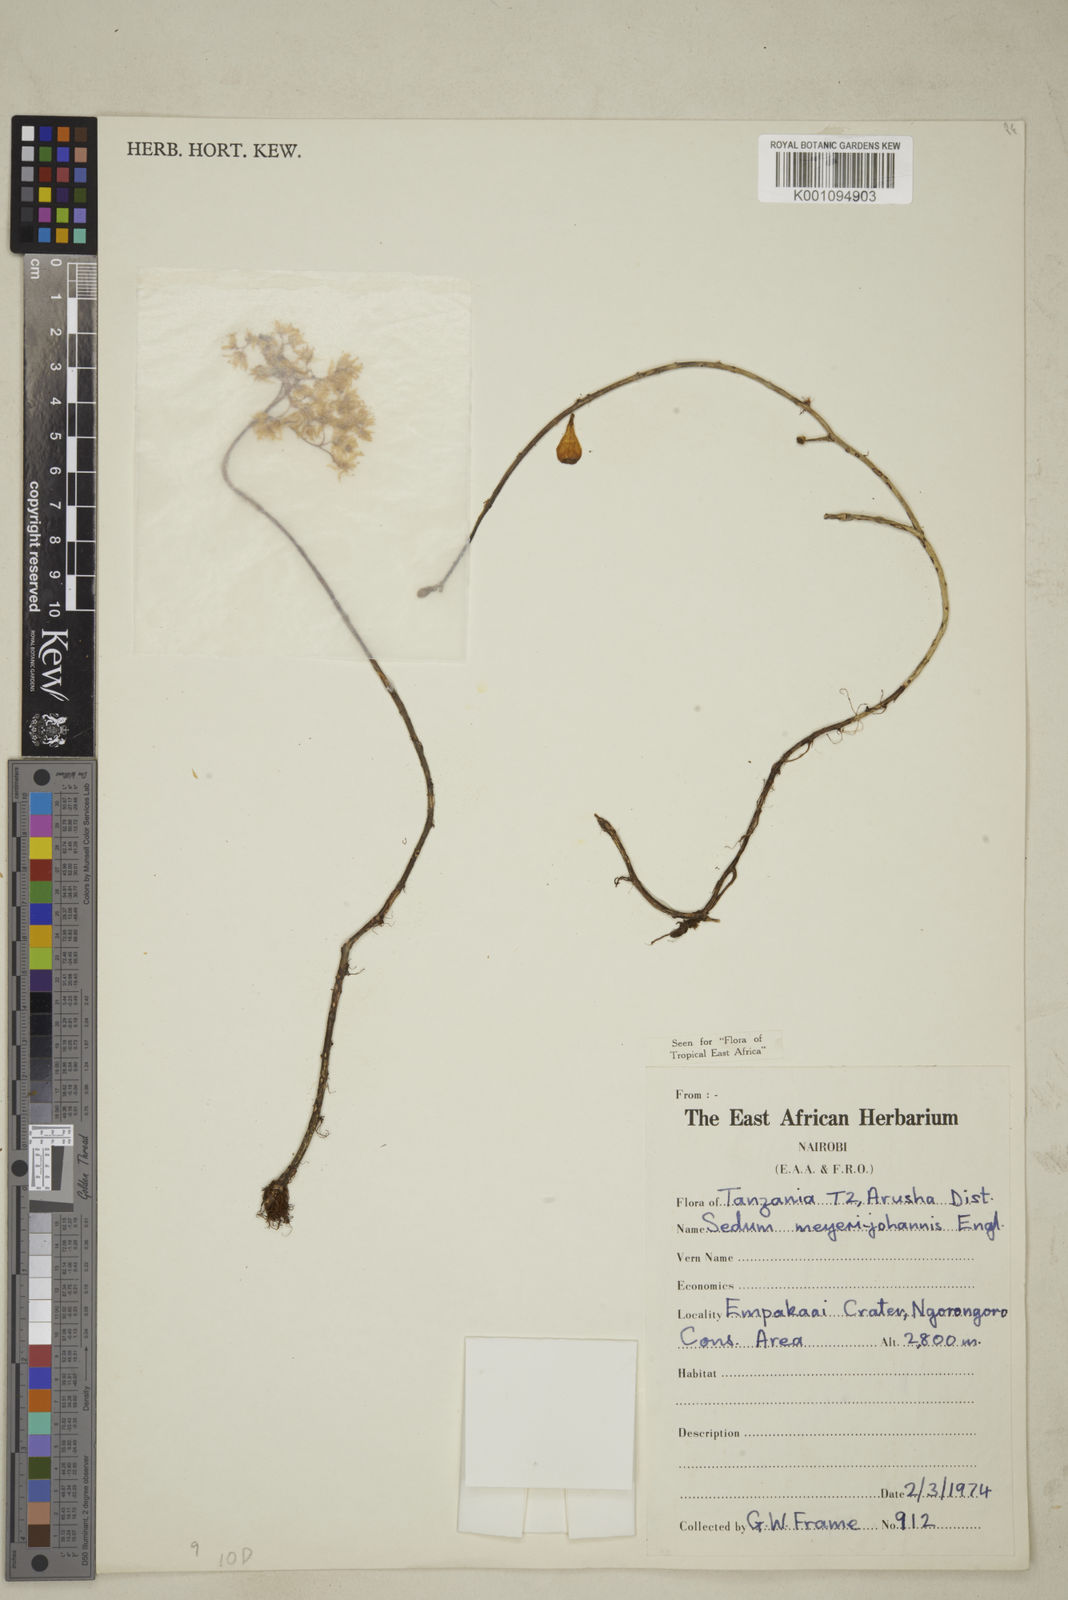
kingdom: Plantae
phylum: Tracheophyta
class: Magnoliopsida
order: Saxifragales
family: Crassulaceae
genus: Sedum
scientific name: Sedum meyeri-johannis
